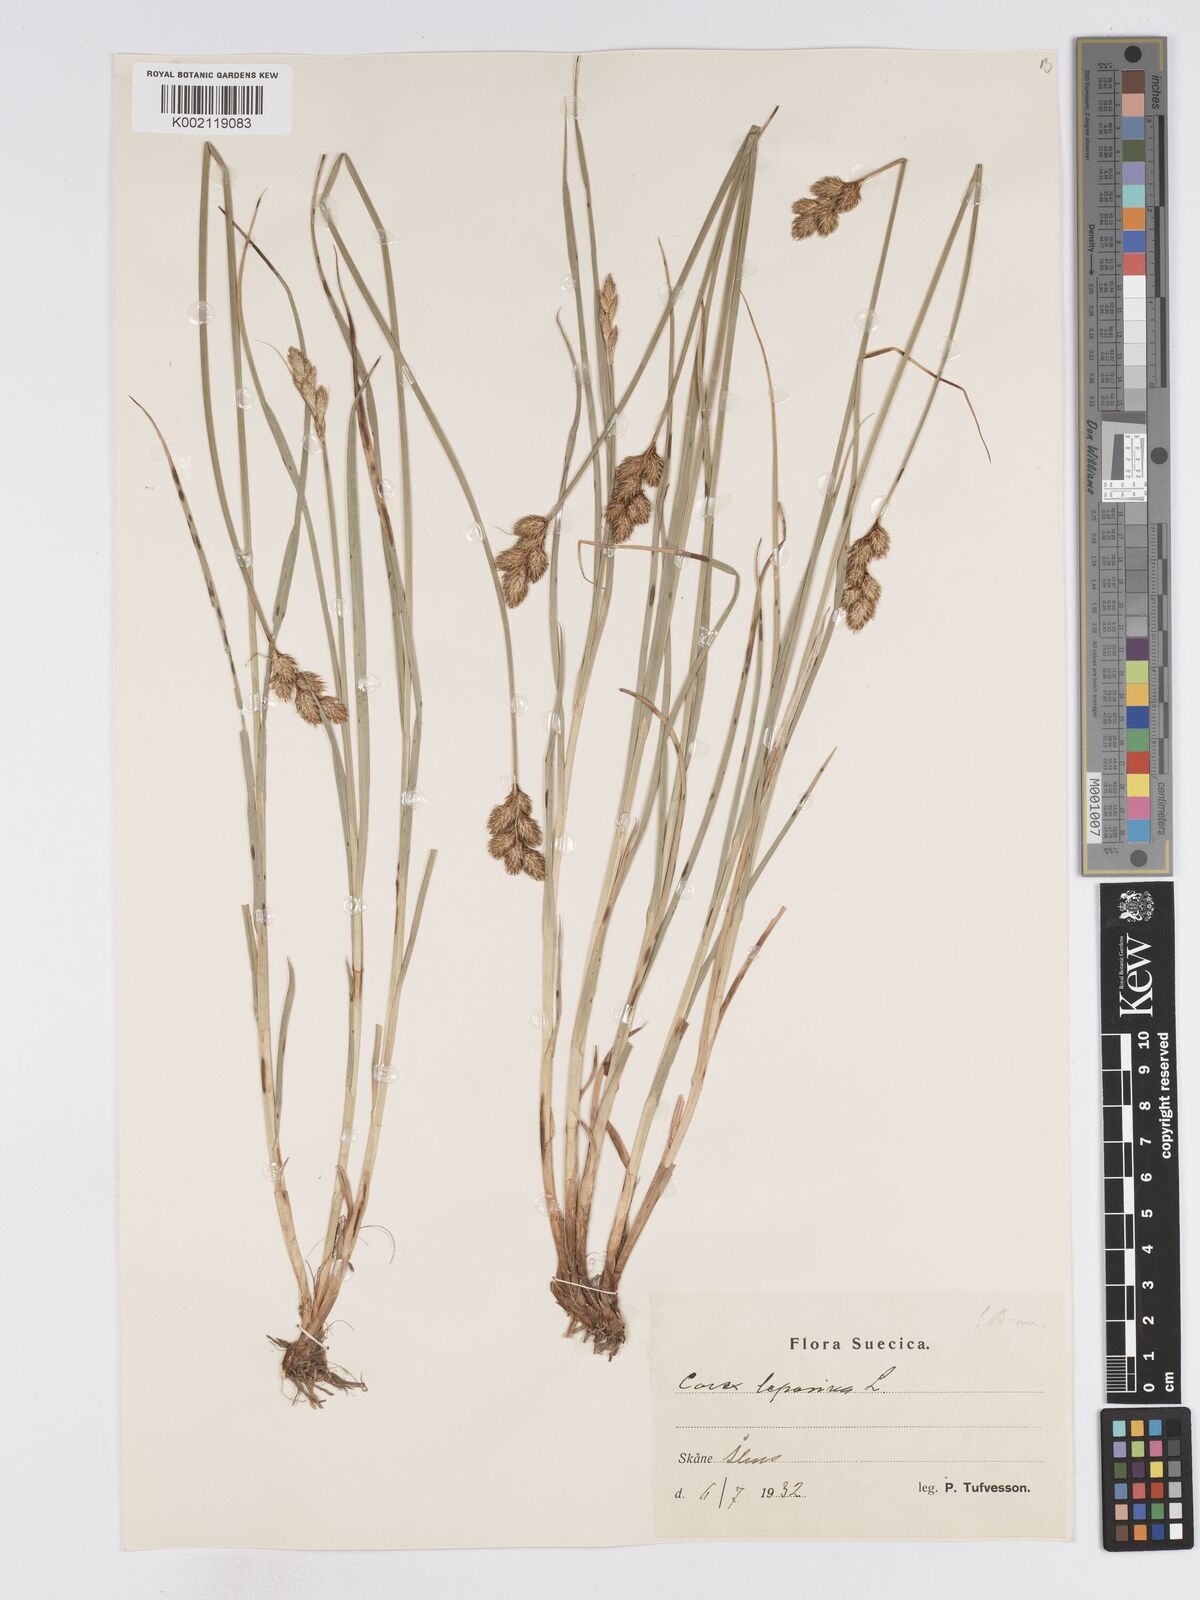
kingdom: Plantae
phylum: Tracheophyta
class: Liliopsida
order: Poales
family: Cyperaceae
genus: Carex
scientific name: Carex leporina
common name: Oval sedge
